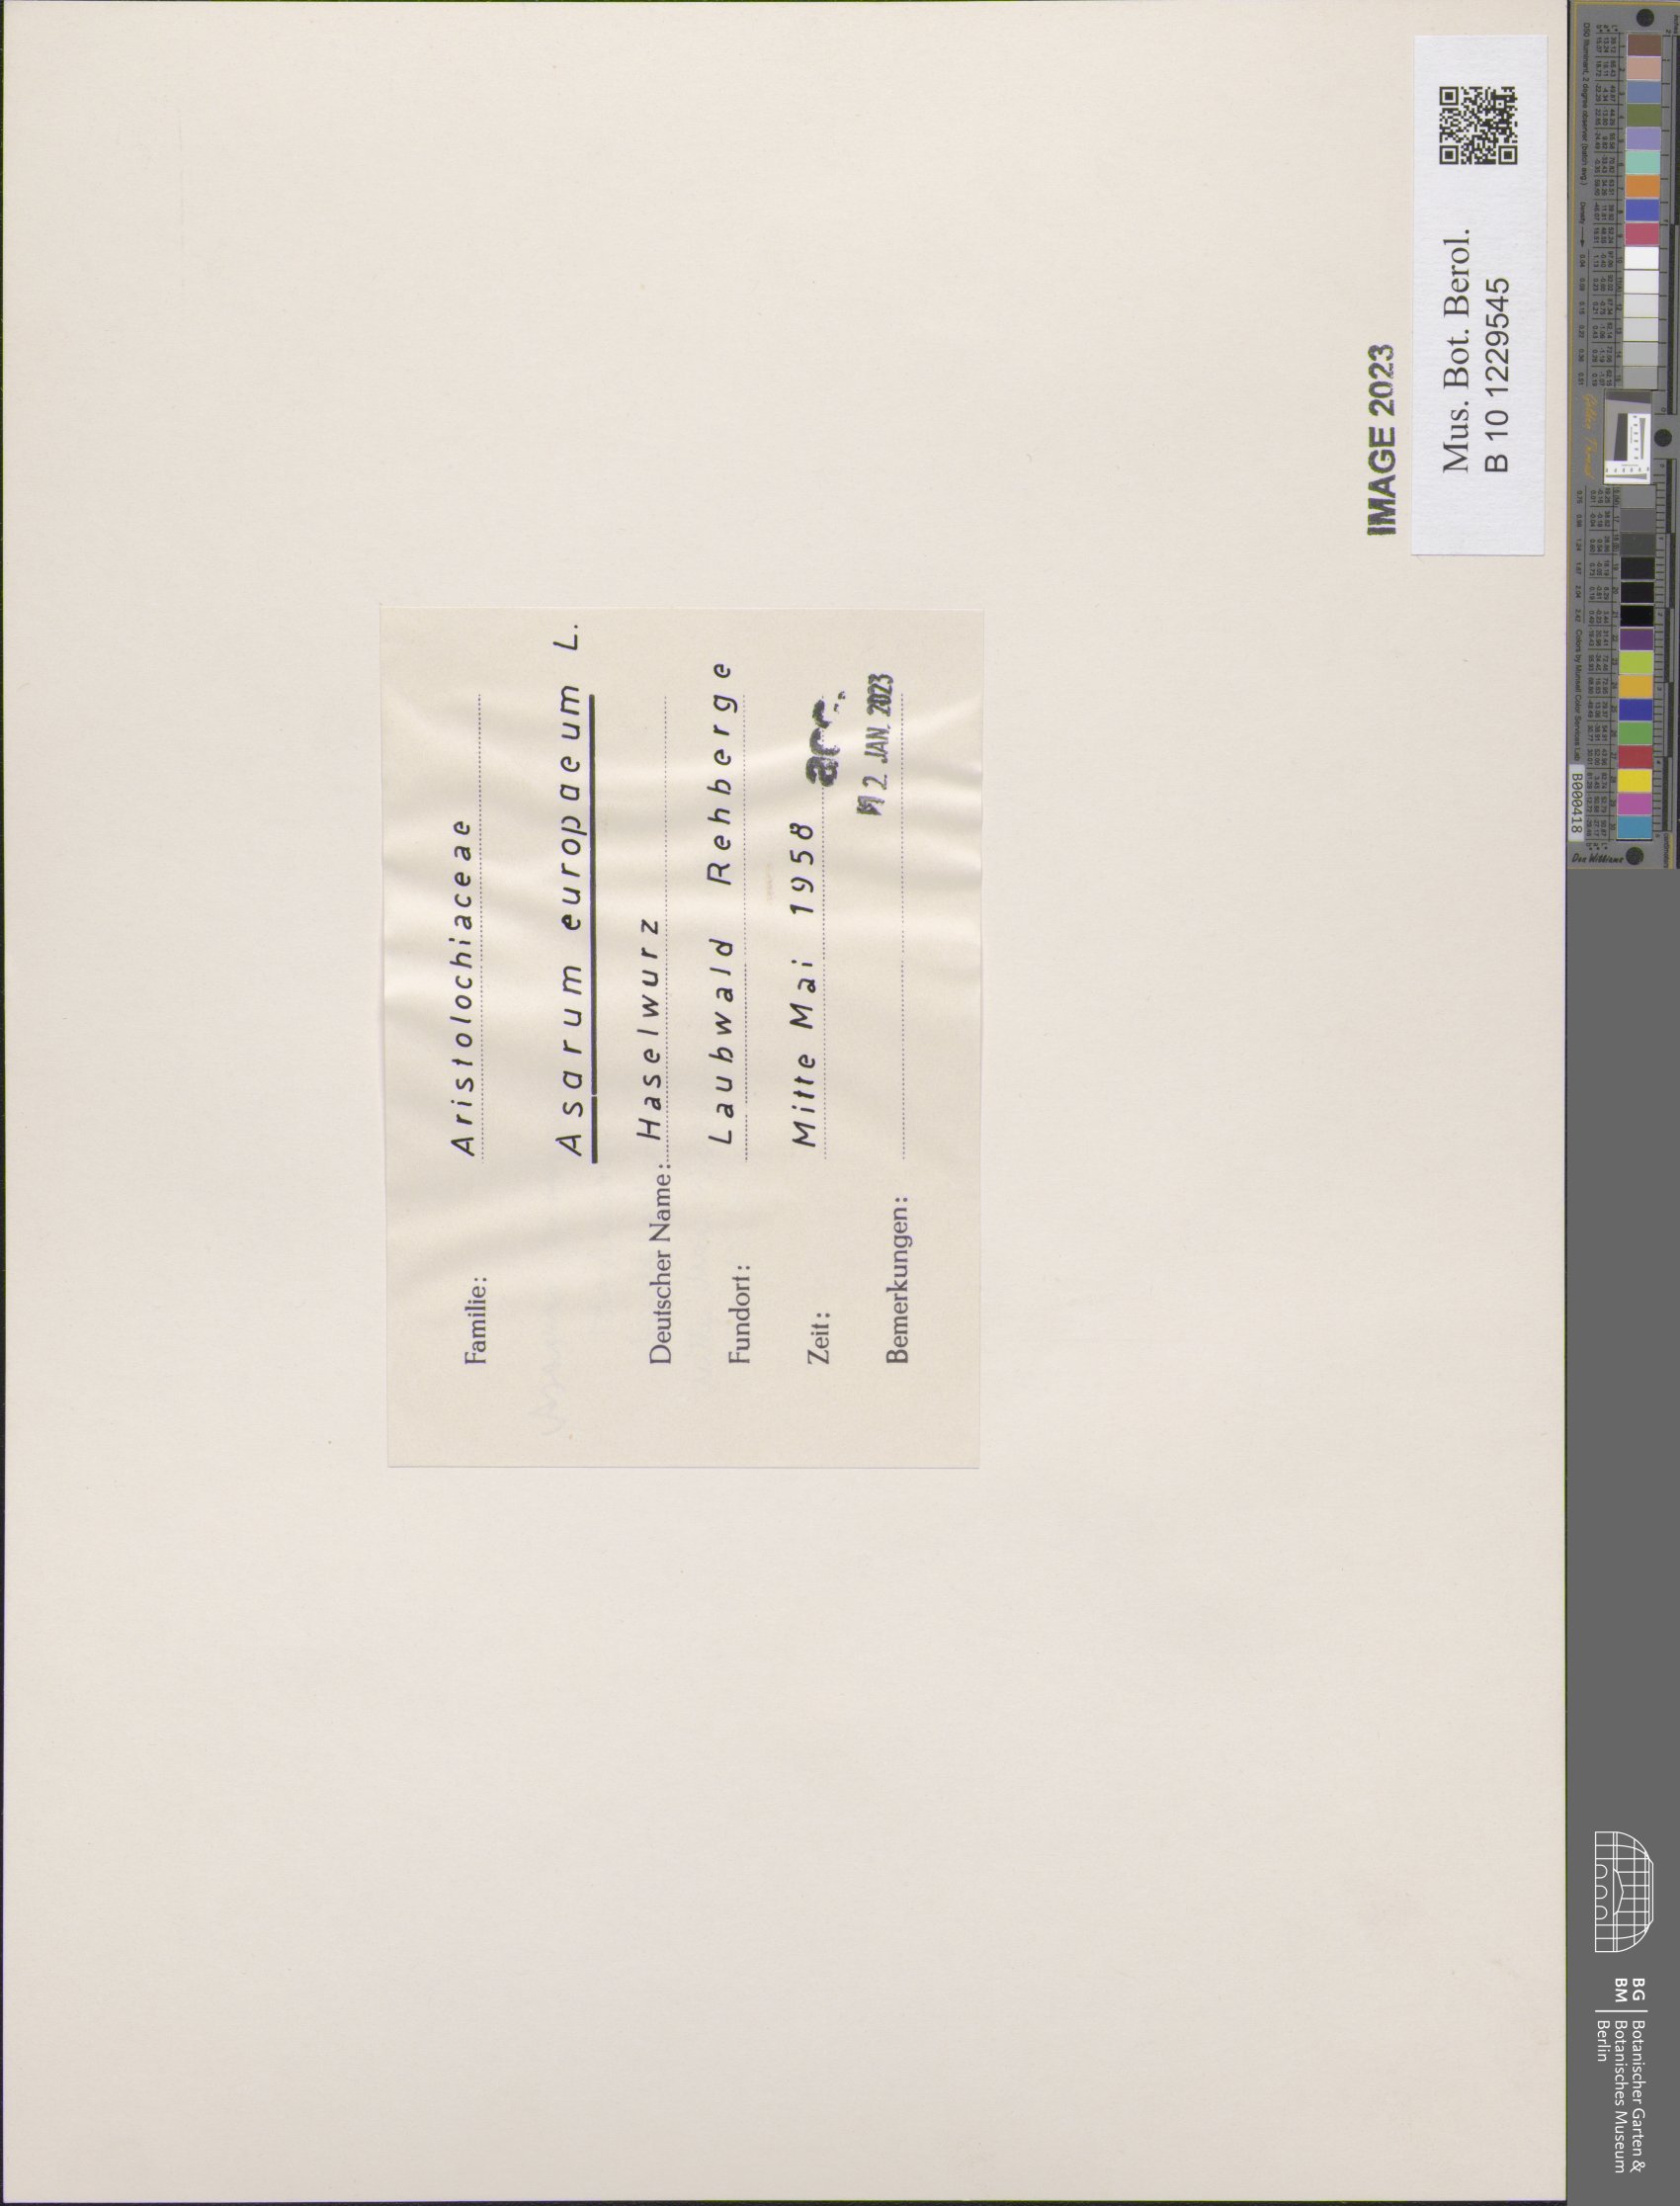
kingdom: Plantae
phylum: Tracheophyta
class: Magnoliopsida
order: Piperales
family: Aristolochiaceae
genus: Asarum
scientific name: Asarum europaeum
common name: Asarabacca
